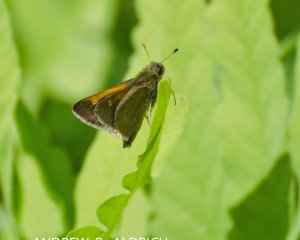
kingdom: Animalia
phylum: Arthropoda
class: Insecta
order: Lepidoptera
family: Hesperiidae
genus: Polites
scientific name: Polites themistocles
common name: Tawny-edged Skipper
